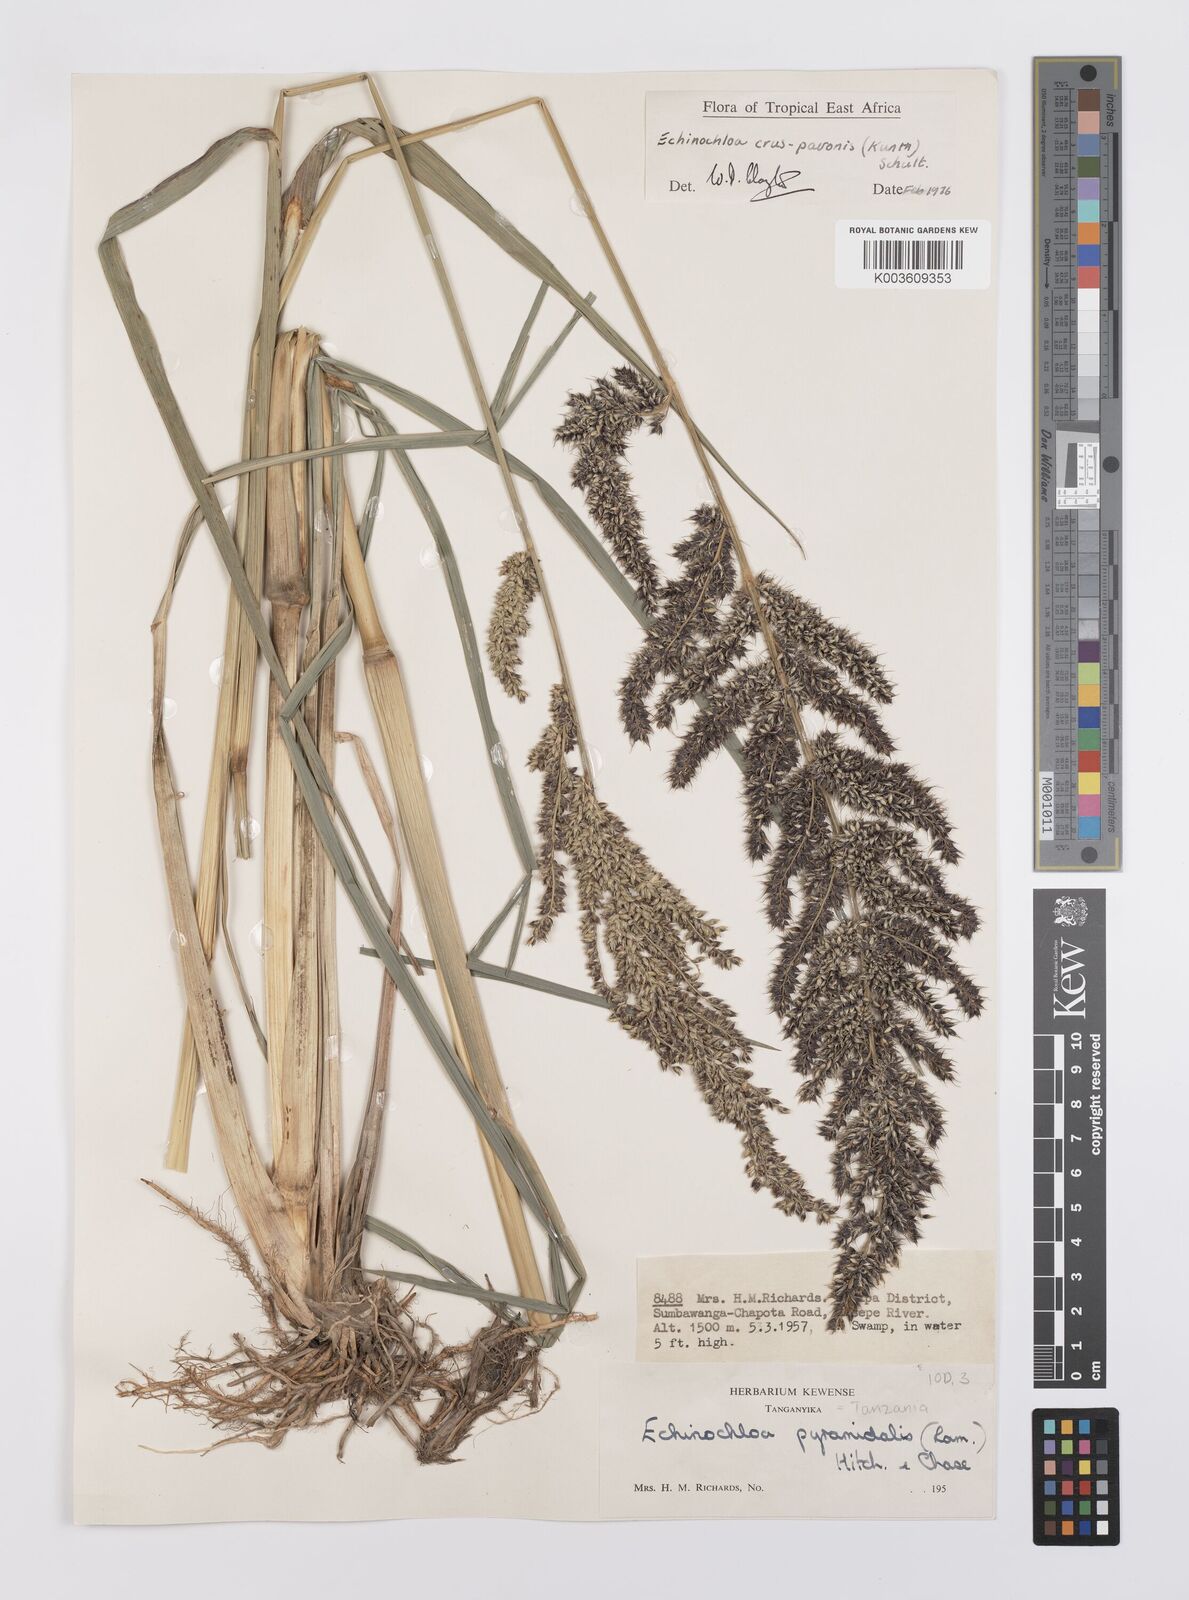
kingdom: Plantae
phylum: Tracheophyta
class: Liliopsida
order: Poales
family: Poaceae
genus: Echinochloa
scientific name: Echinochloa crus-pavonis
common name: Gulf cockspur grass
